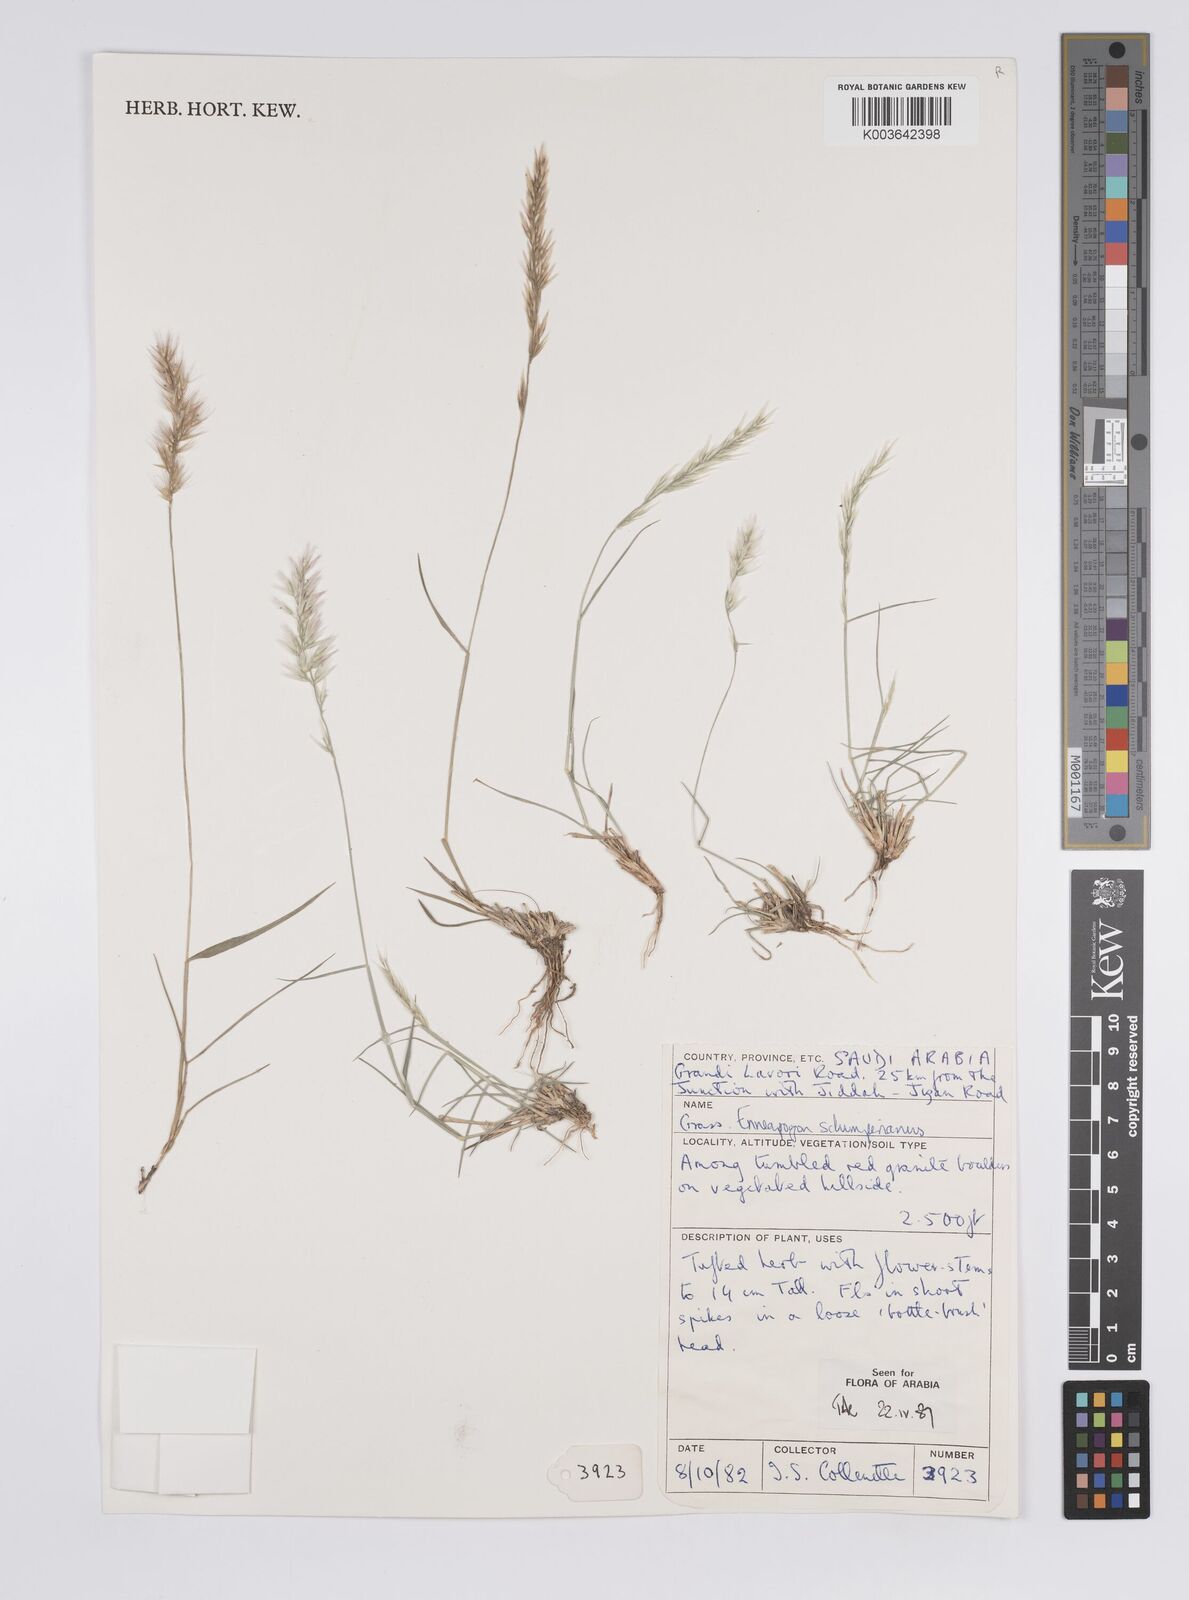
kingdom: Plantae
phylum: Tracheophyta
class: Liliopsida
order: Poales
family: Poaceae
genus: Enneapogon
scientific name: Enneapogon persicus
